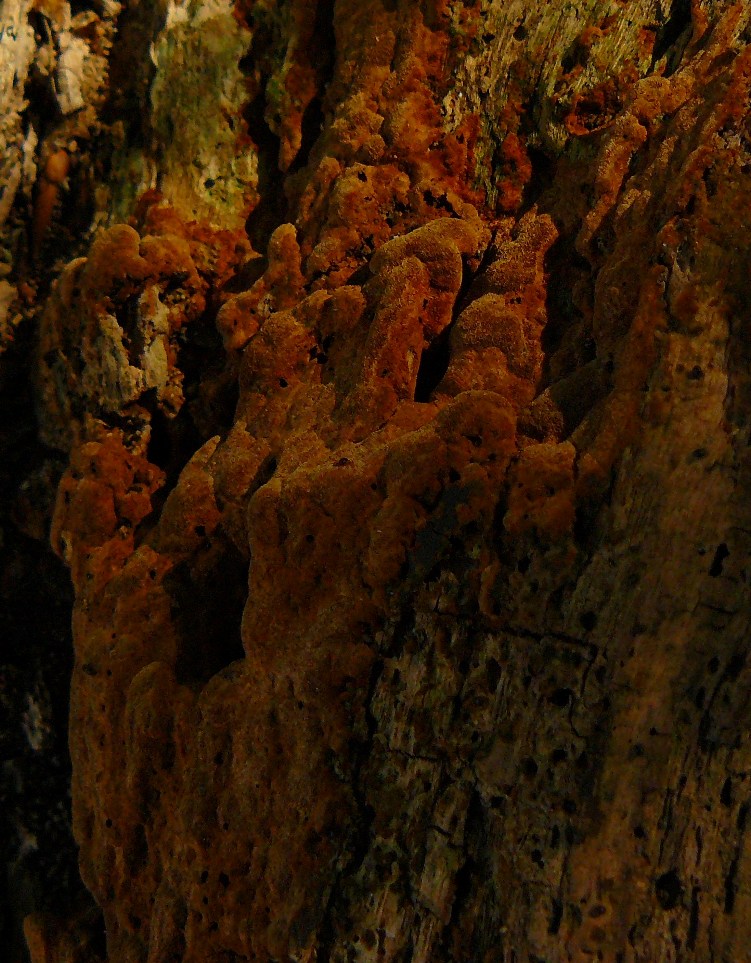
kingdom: Fungi
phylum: Basidiomycota
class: Agaricomycetes
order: Hymenochaetales
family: Hymenochaetaceae
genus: Fuscoporia
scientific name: Fuscoporia ferrea
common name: skorpe-ildporesvamp
